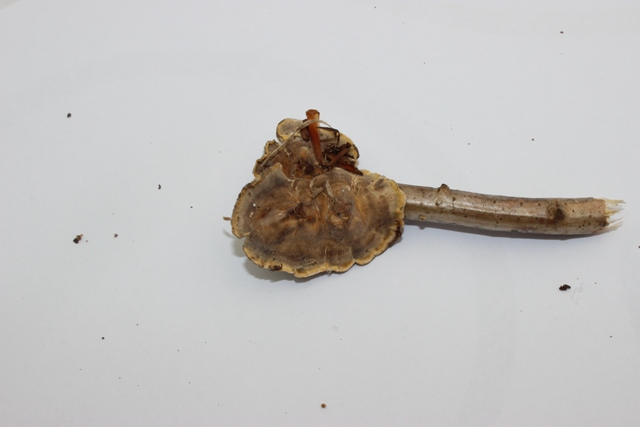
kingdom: Fungi
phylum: Basidiomycota
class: Agaricomycetes
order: Russulales
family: Stereaceae
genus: Stereum
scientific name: Stereum hirsutum
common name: håret lædersvamp
